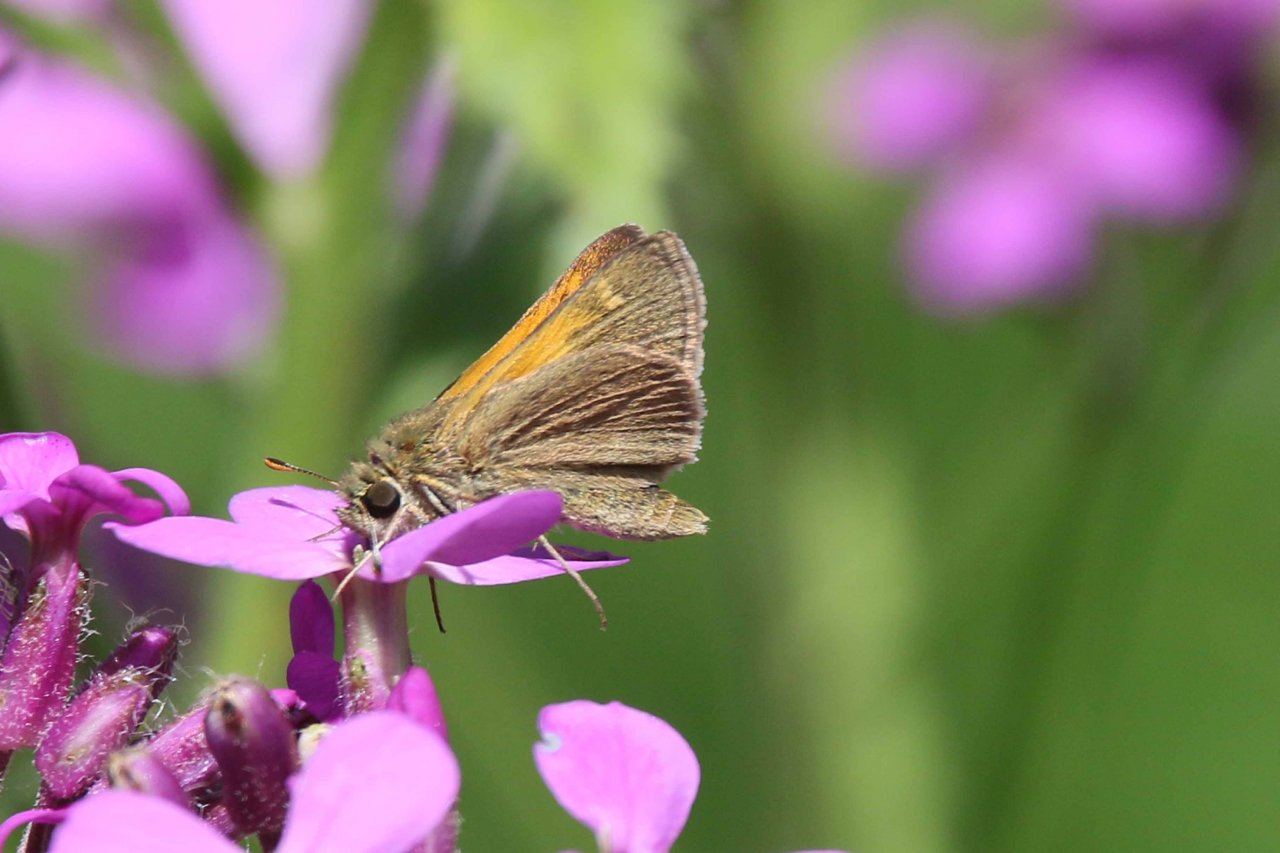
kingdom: Animalia
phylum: Arthropoda
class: Insecta
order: Lepidoptera
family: Hesperiidae
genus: Polites
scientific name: Polites themistocles
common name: Tawny-edged Skipper
